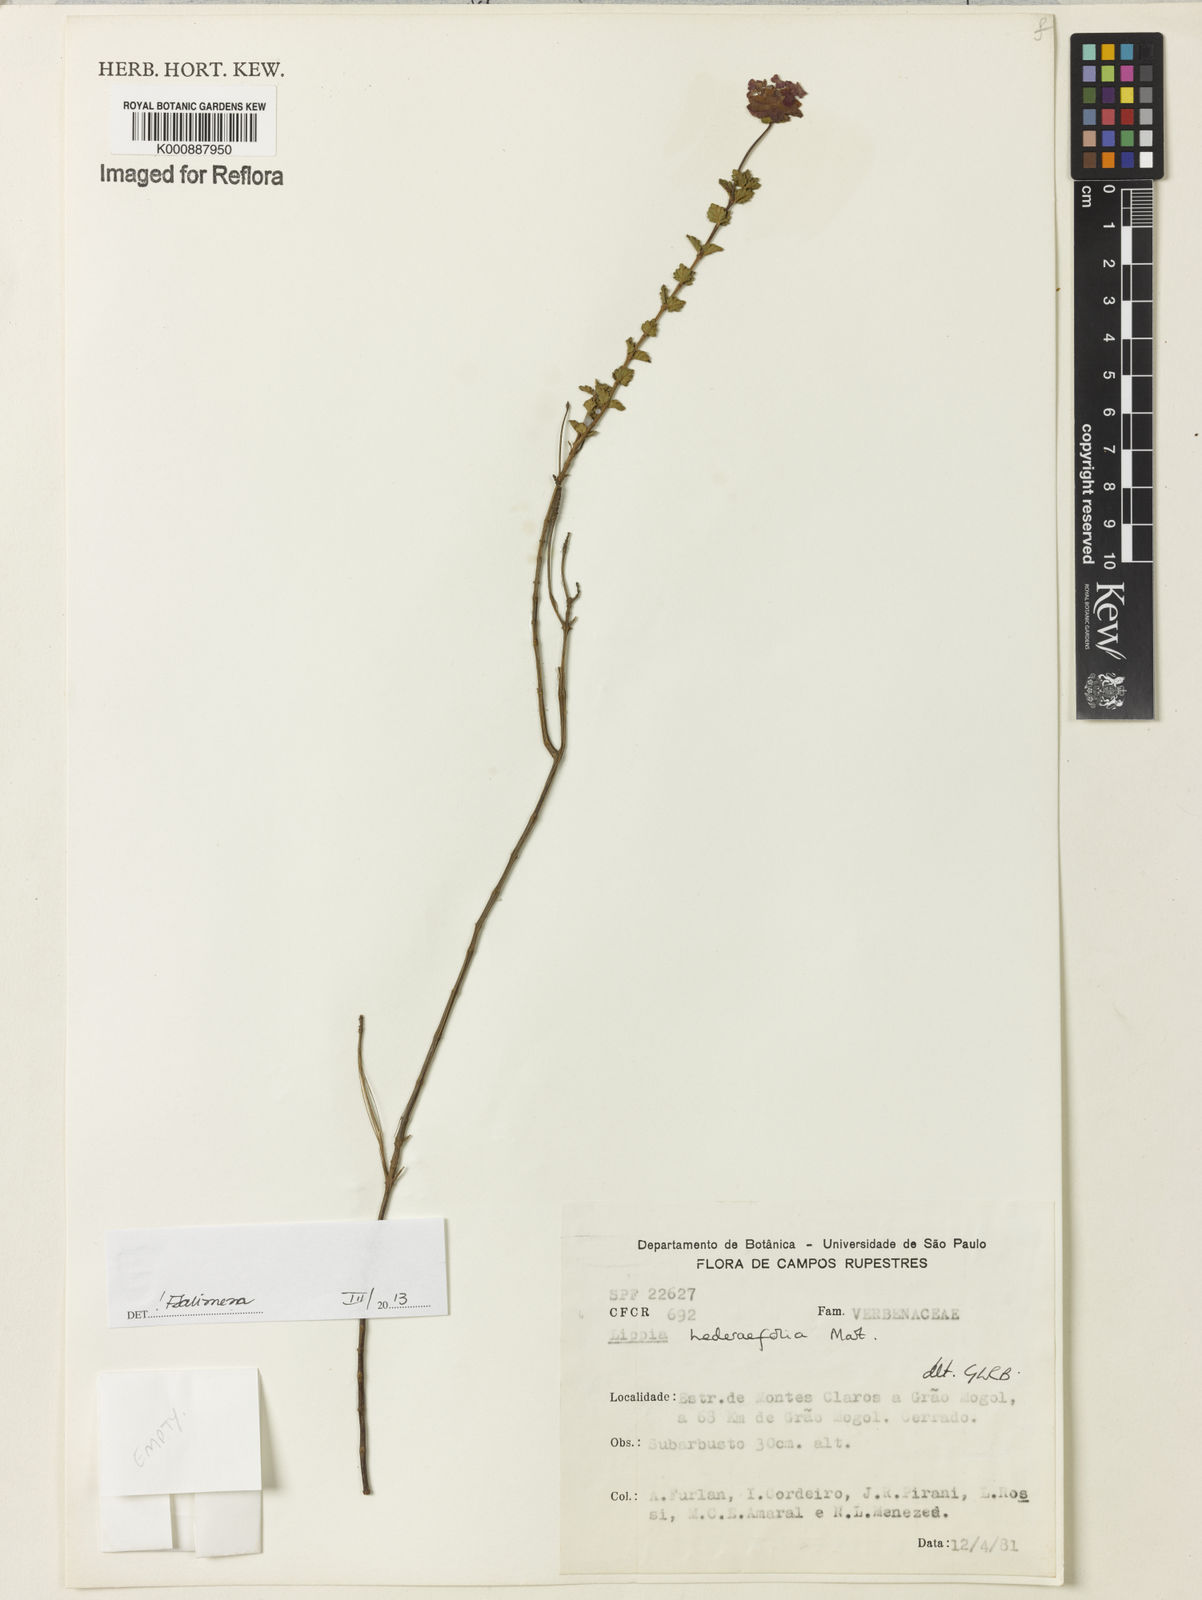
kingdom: Plantae
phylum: Tracheophyta
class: Magnoliopsida
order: Lamiales
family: Verbenaceae
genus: Lippia
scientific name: Lippia hederifolia
